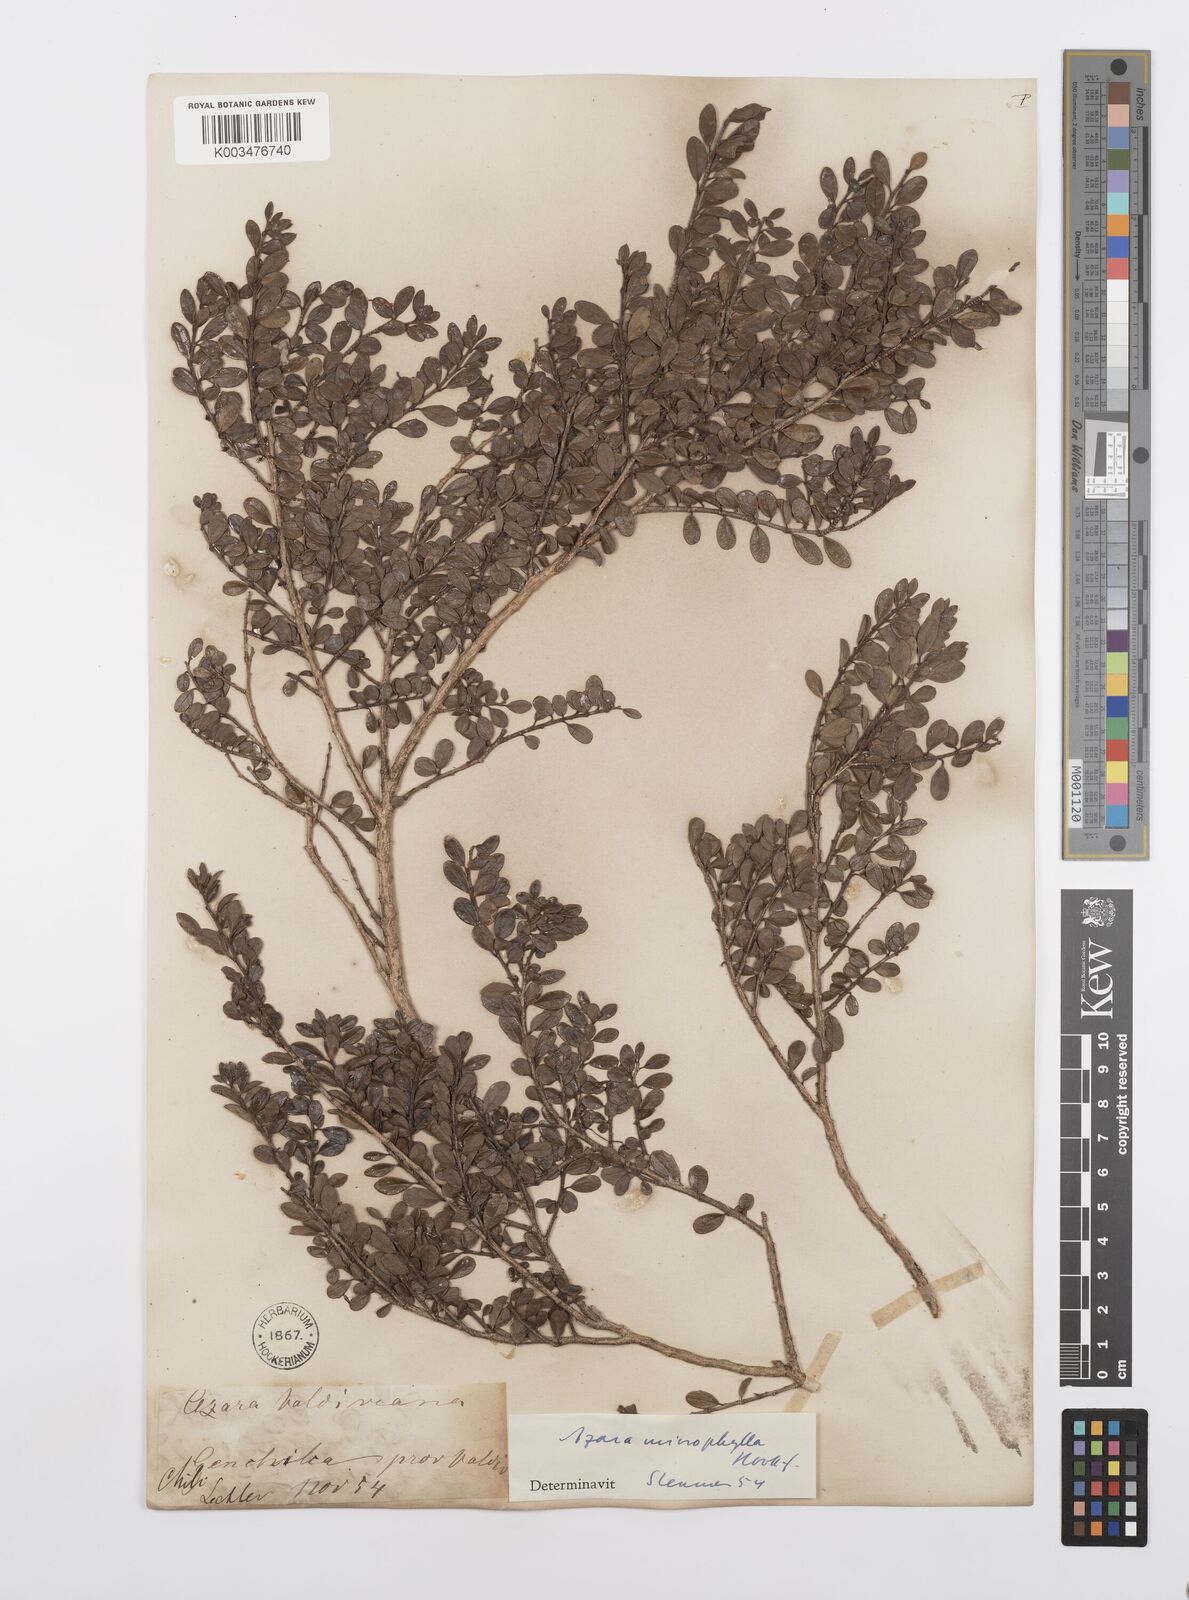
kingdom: Plantae
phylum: Tracheophyta
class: Magnoliopsida
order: Malpighiales
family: Salicaceae
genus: Azara
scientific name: Azara microphylla
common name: Box-leaf azara
